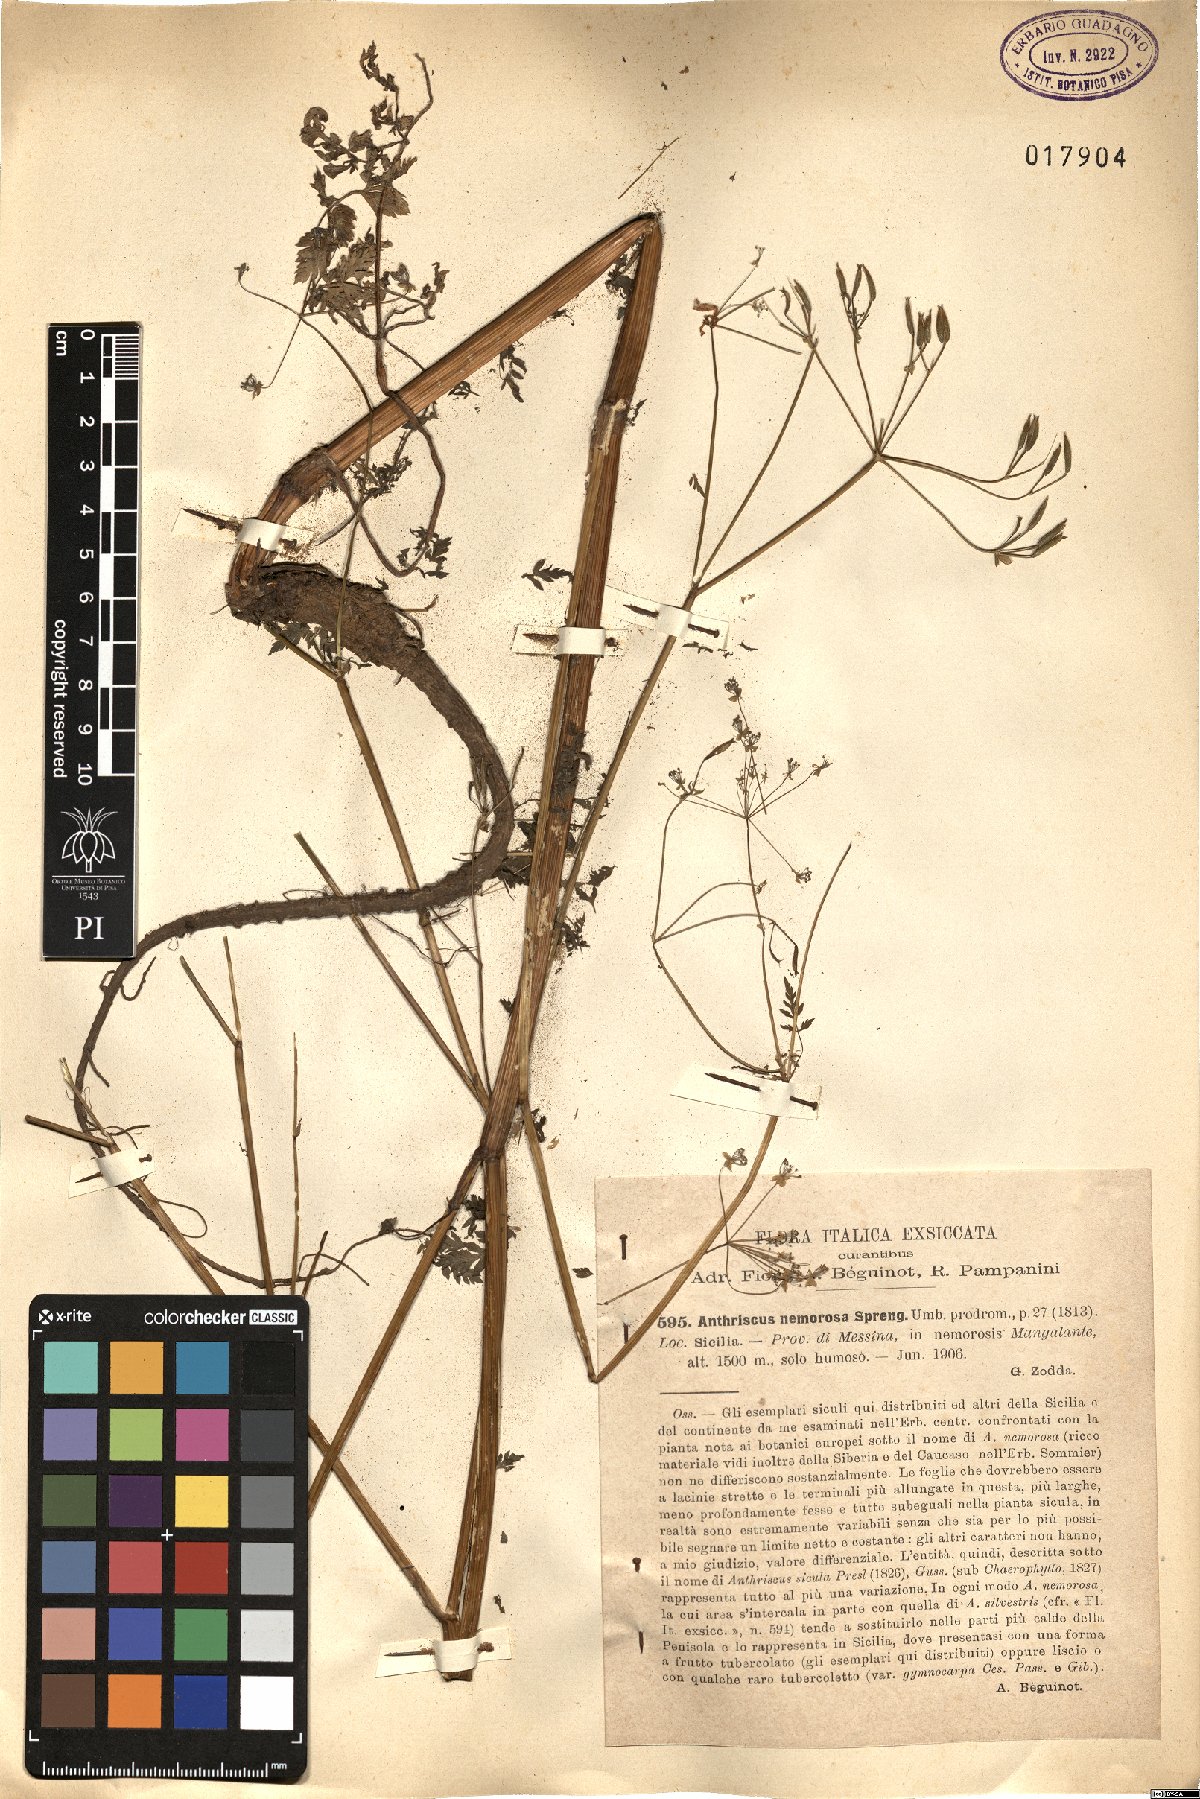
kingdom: Plantae
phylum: Tracheophyta
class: Magnoliopsida
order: Apiales
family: Apiaceae
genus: Anthriscus
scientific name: Anthriscus sylvestris
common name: Cow parsley
